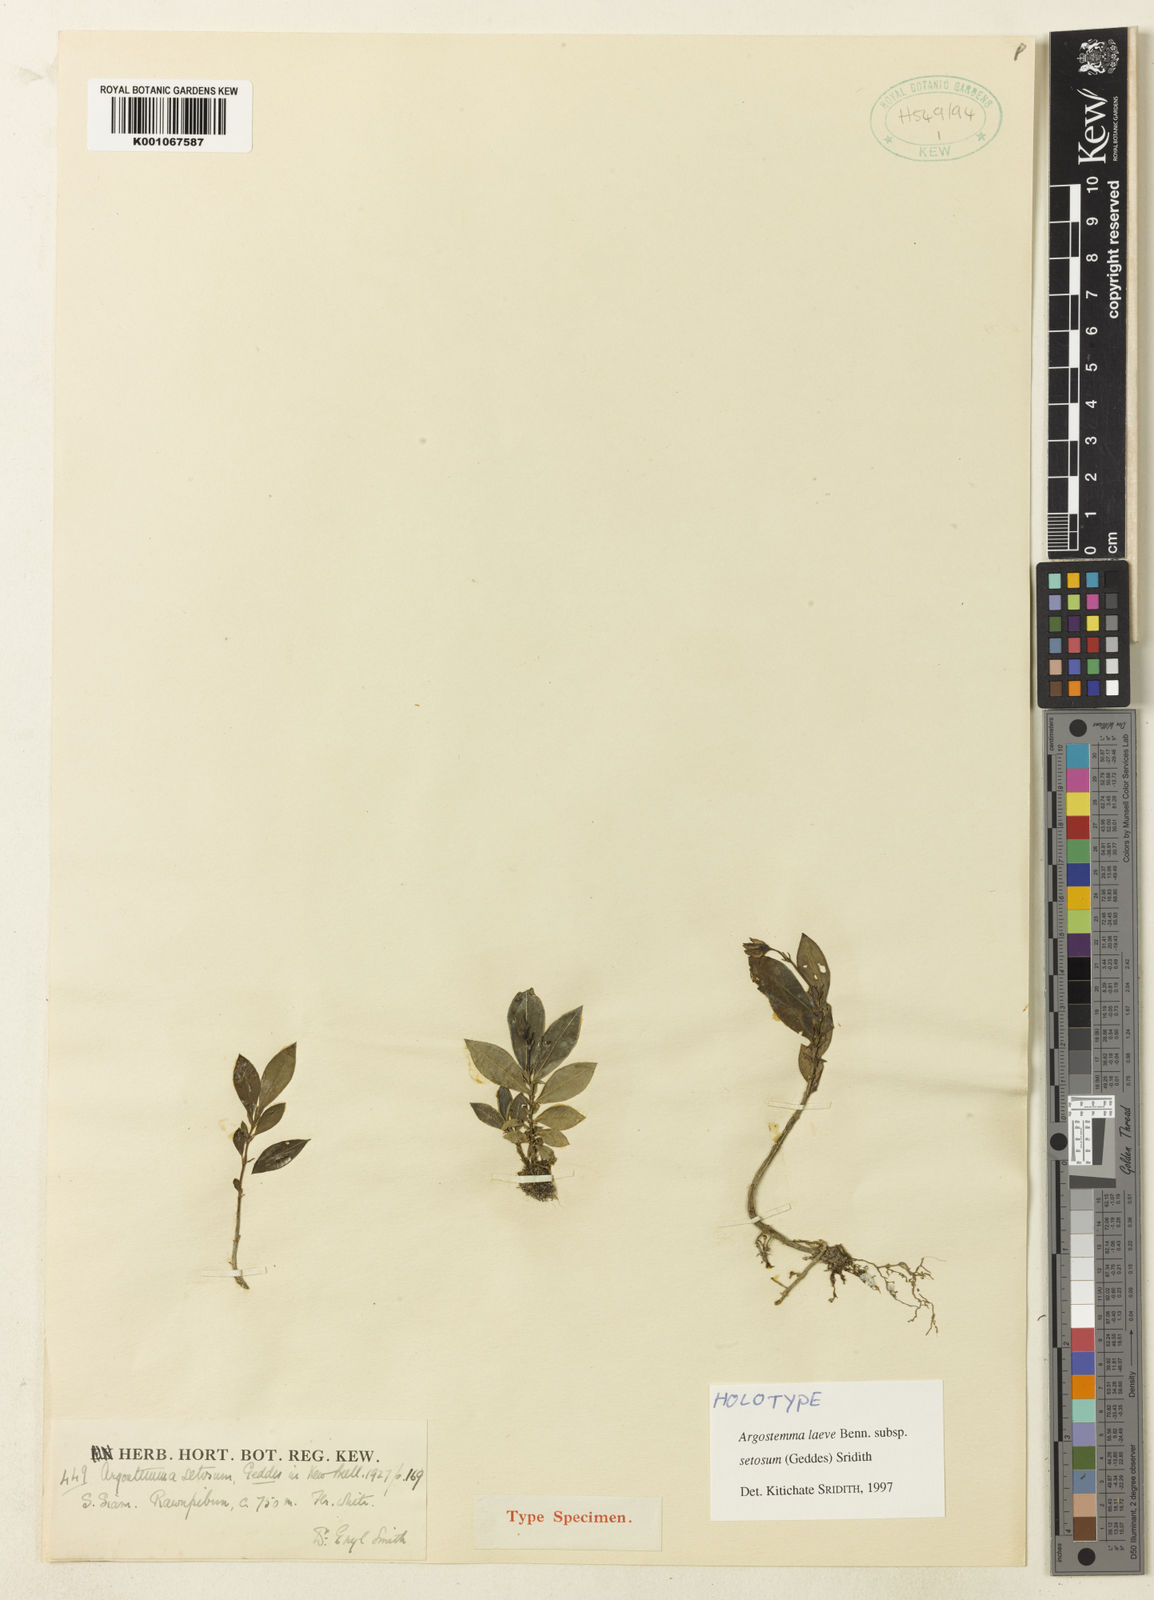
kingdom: Plantae
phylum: Tracheophyta
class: Magnoliopsida
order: Gentianales
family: Rubiaceae
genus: Argostemma
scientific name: Argostemma laeve
